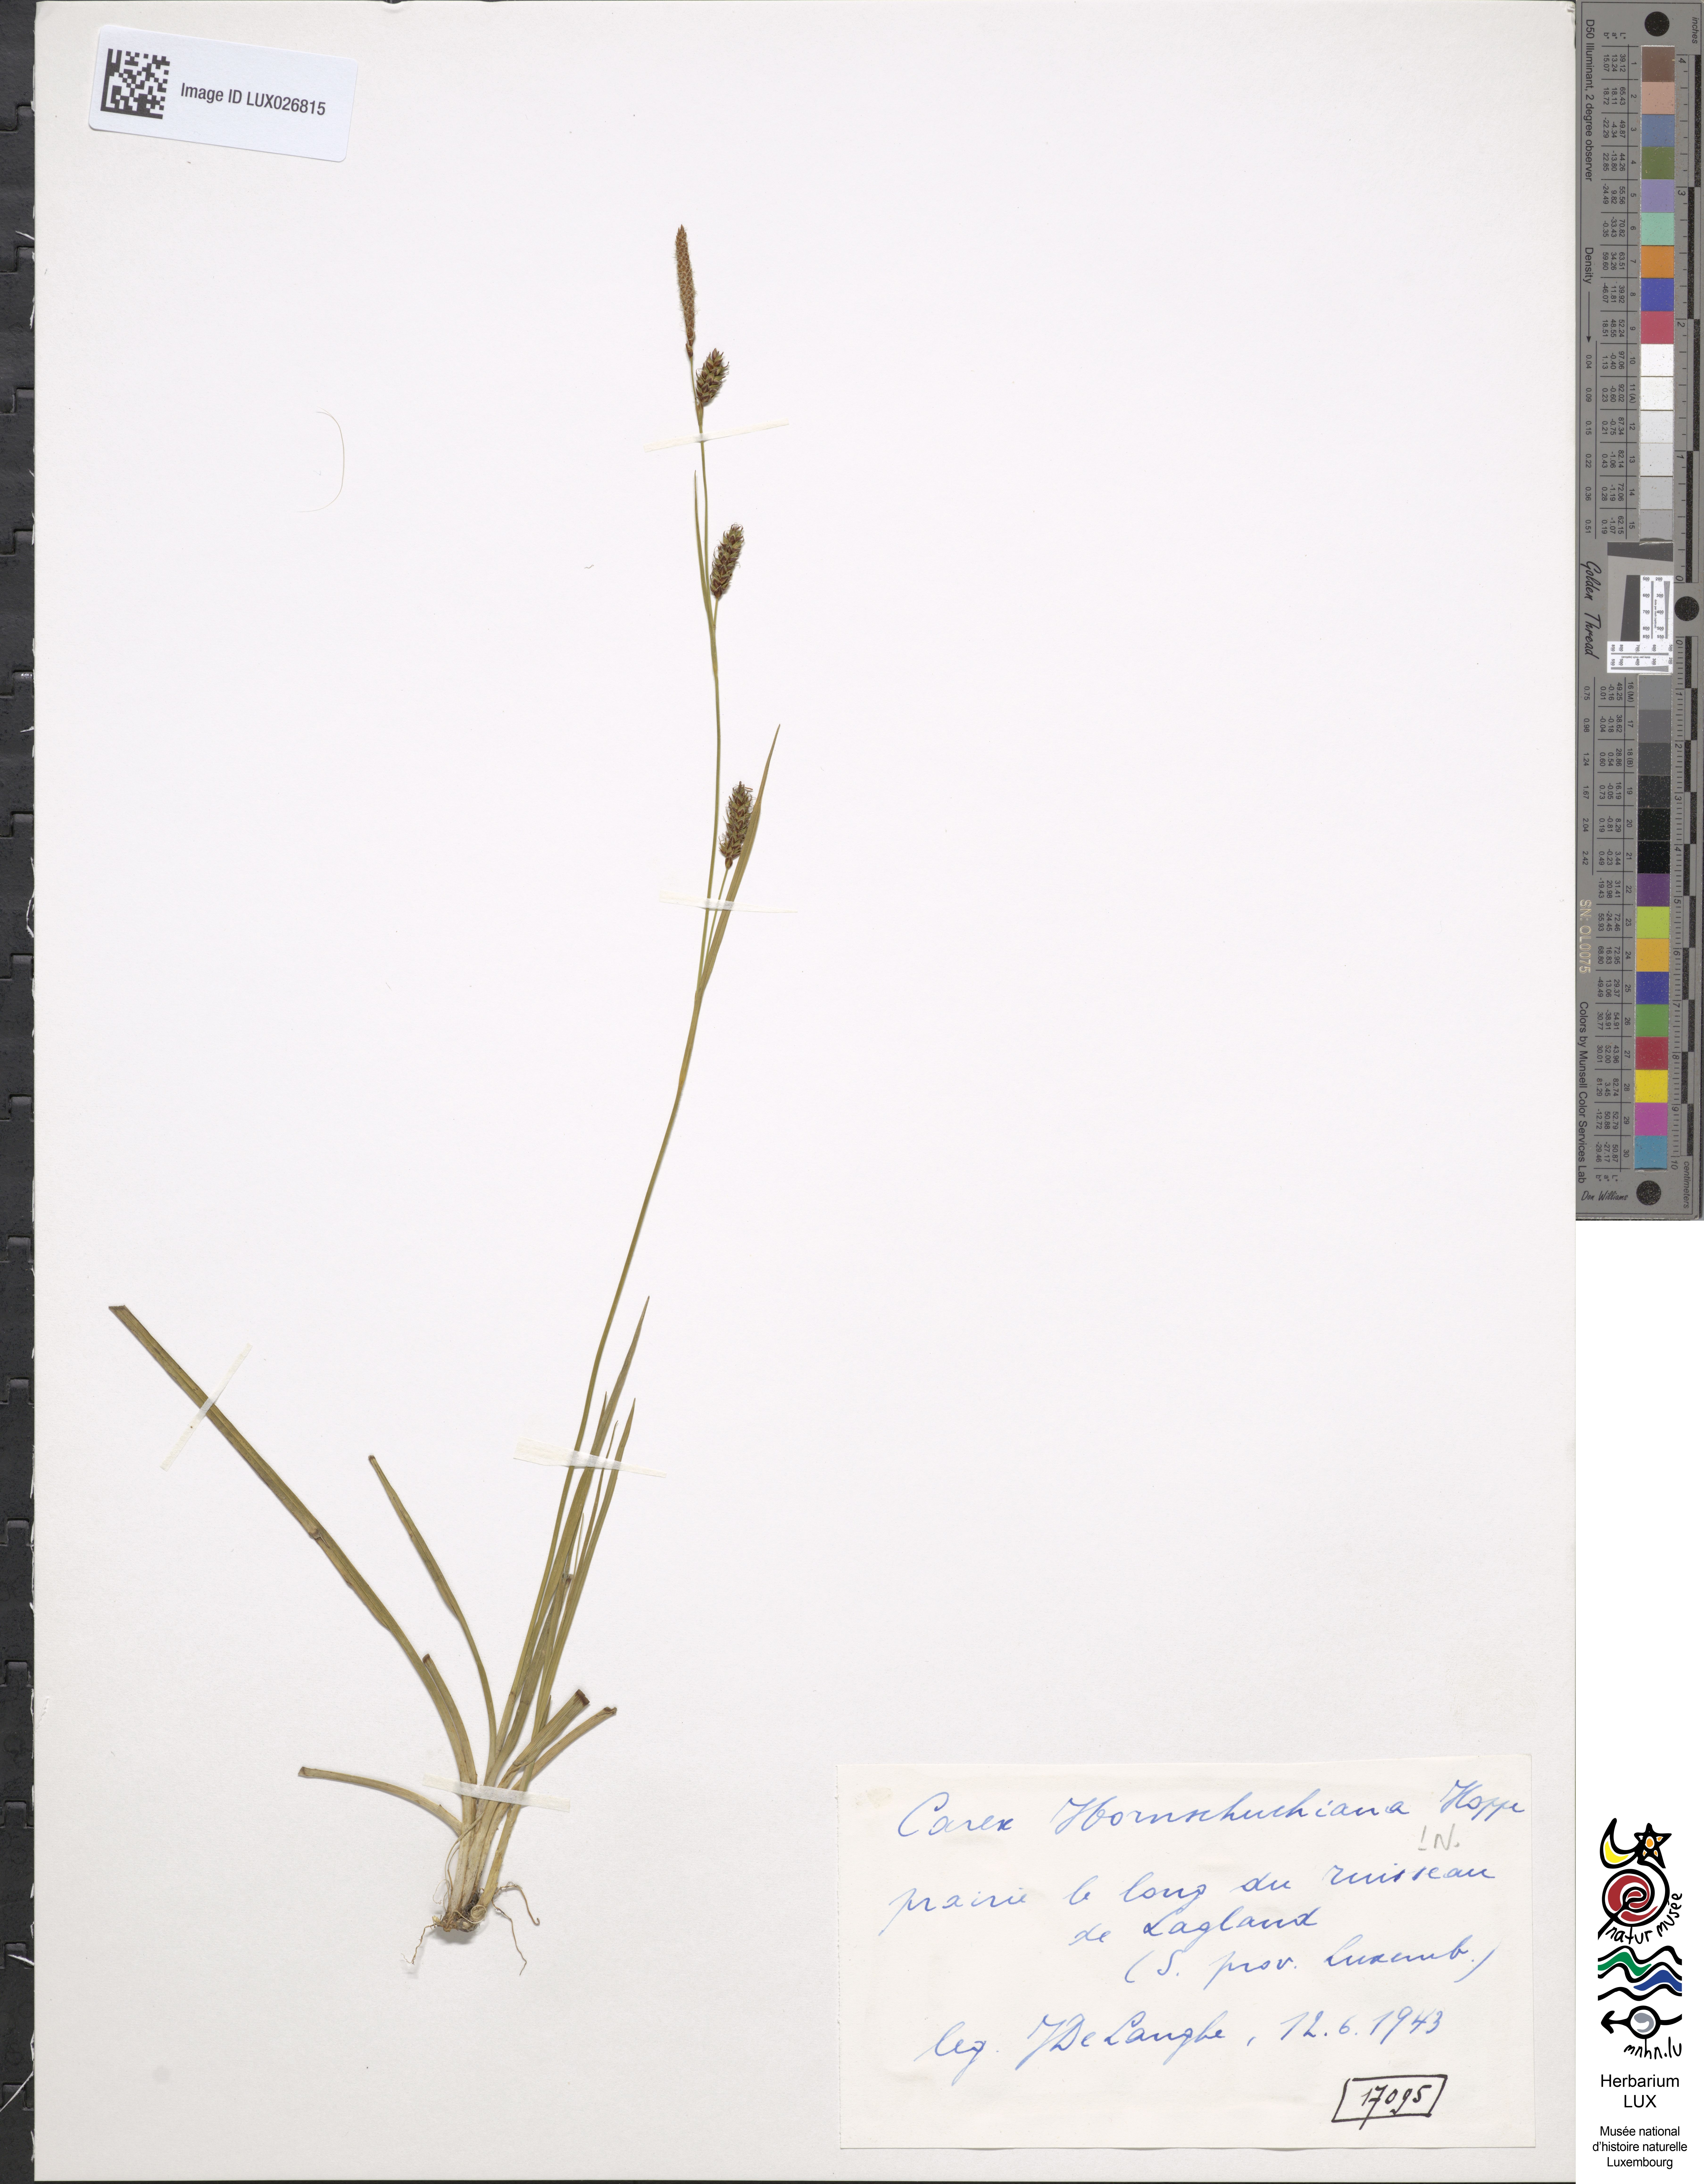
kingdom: Plantae
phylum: Tracheophyta
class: Liliopsida
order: Poales
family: Cyperaceae
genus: Carex
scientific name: Carex hostiana
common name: Tawny sedge
